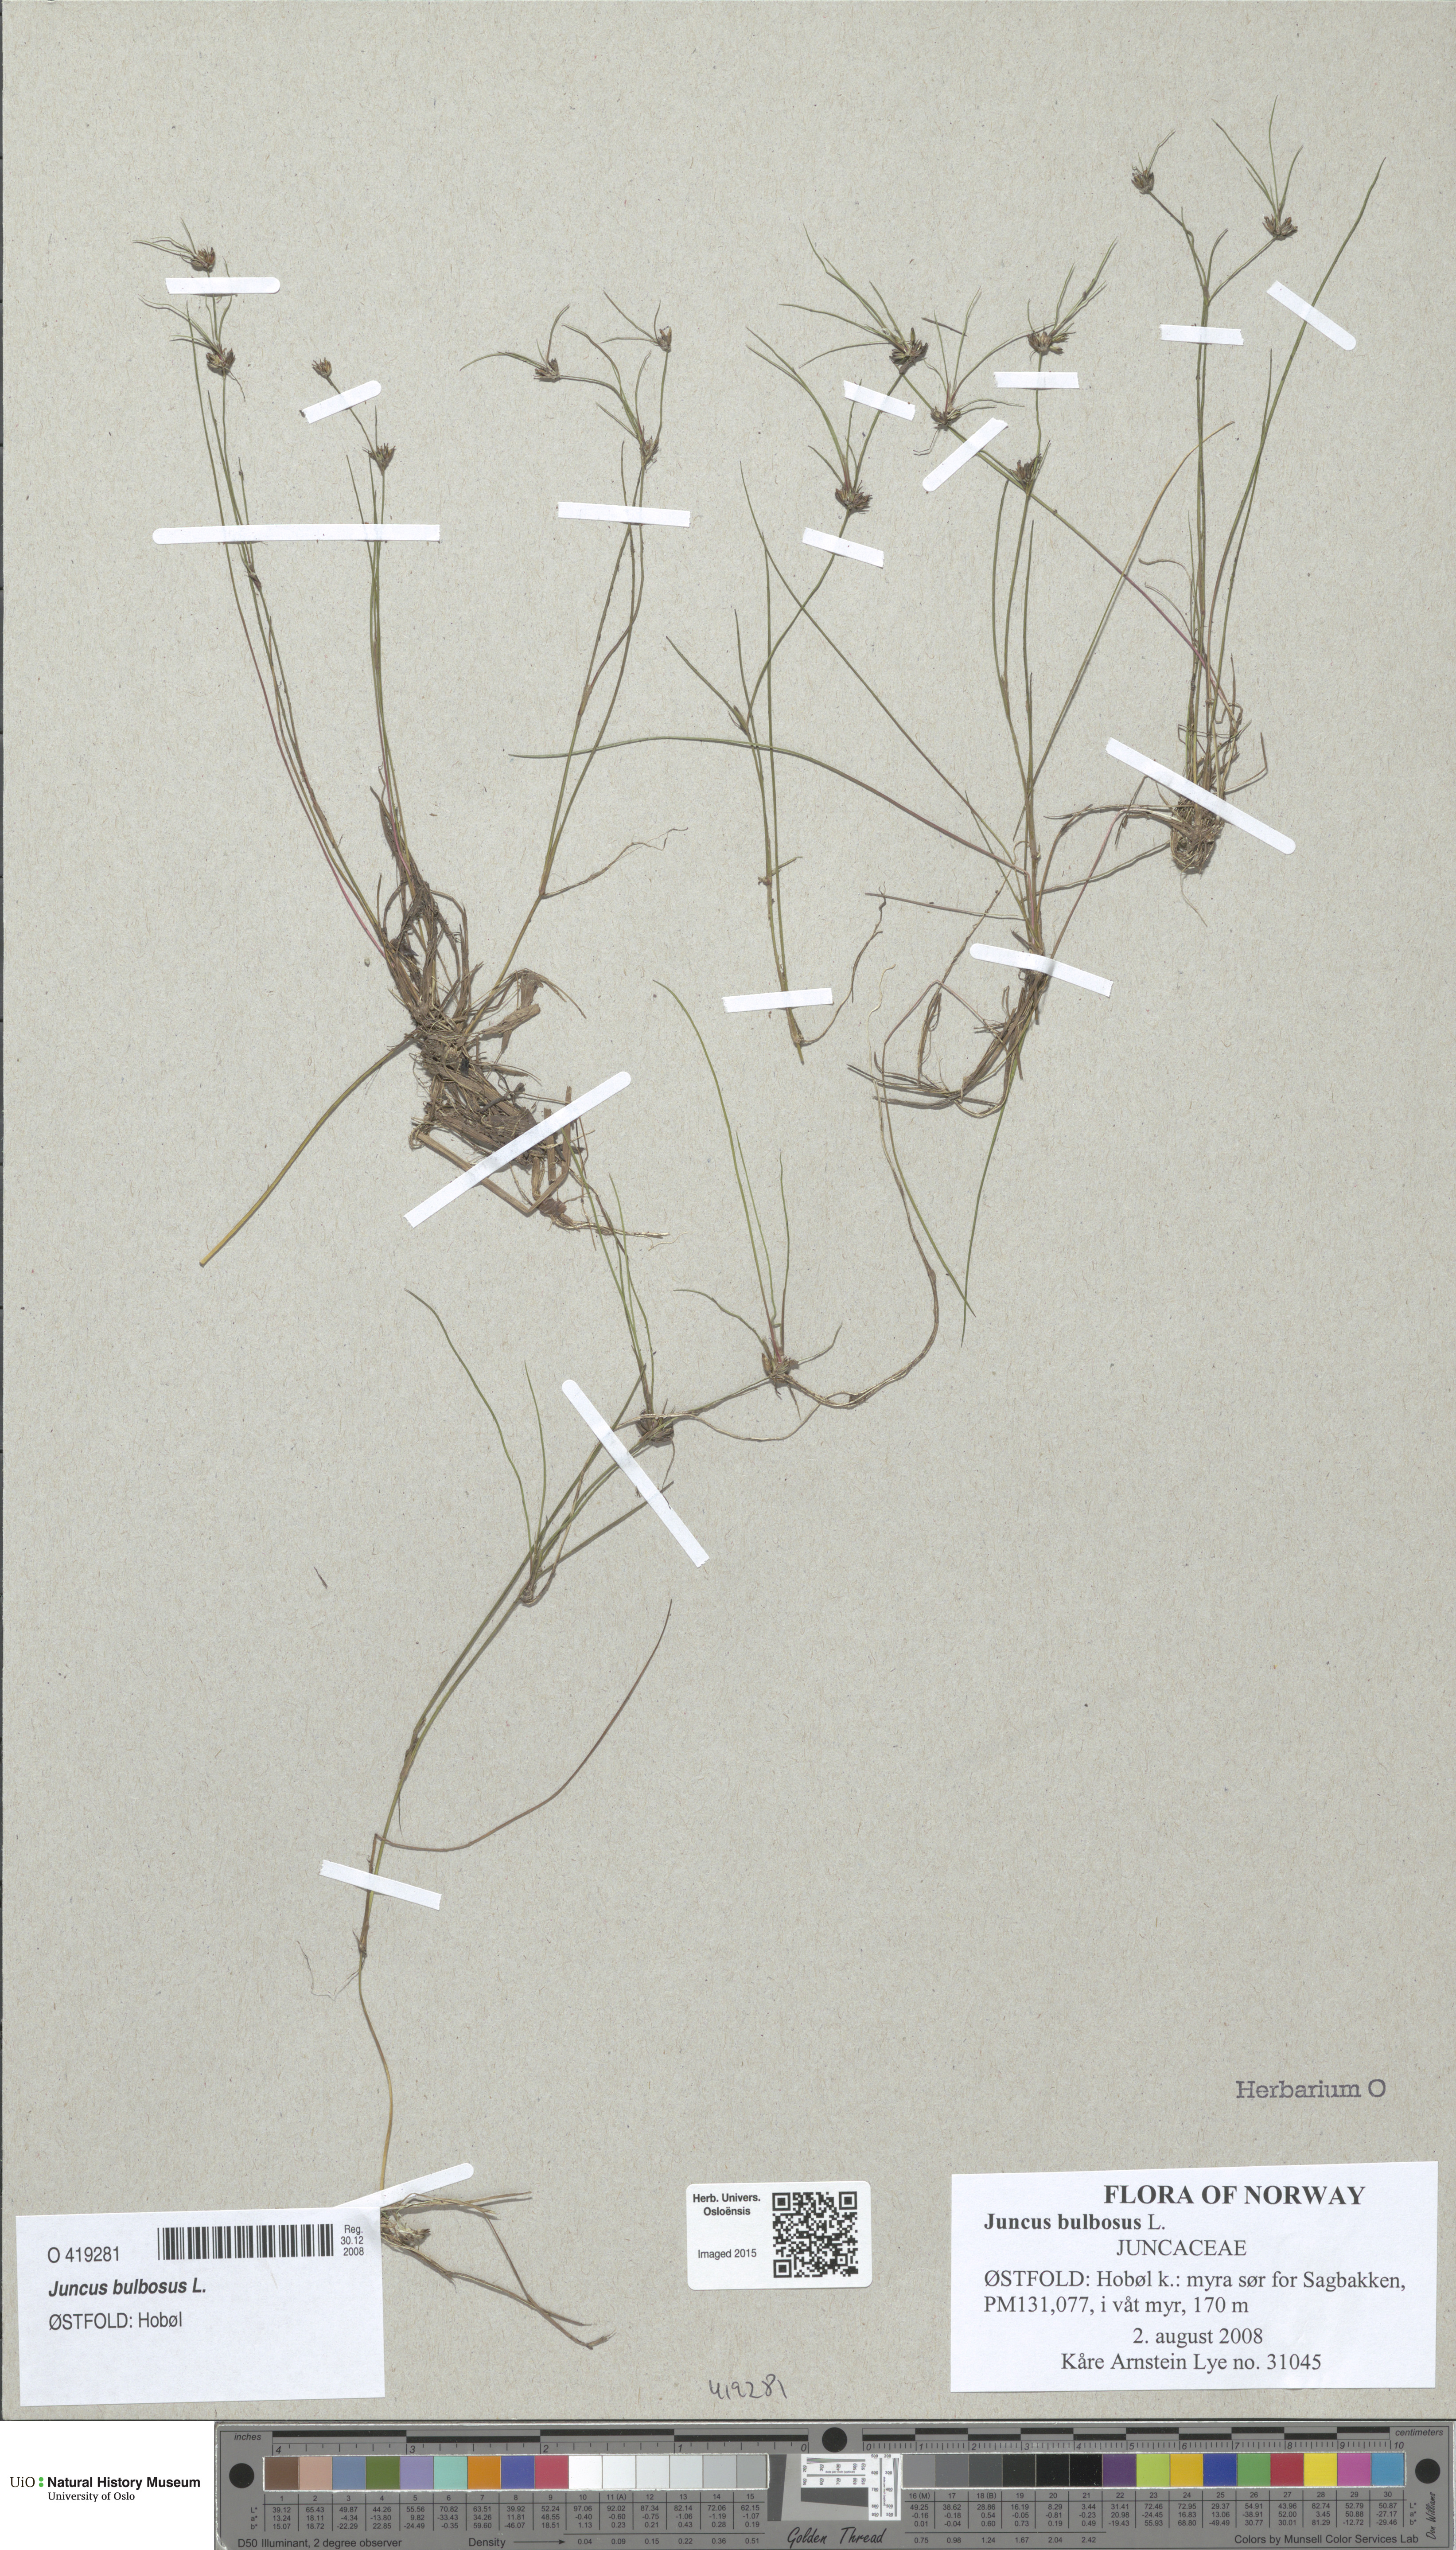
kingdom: Plantae
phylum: Tracheophyta
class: Liliopsida
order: Poales
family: Juncaceae
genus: Juncus
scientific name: Juncus bulbosus
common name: Bulbous rush
